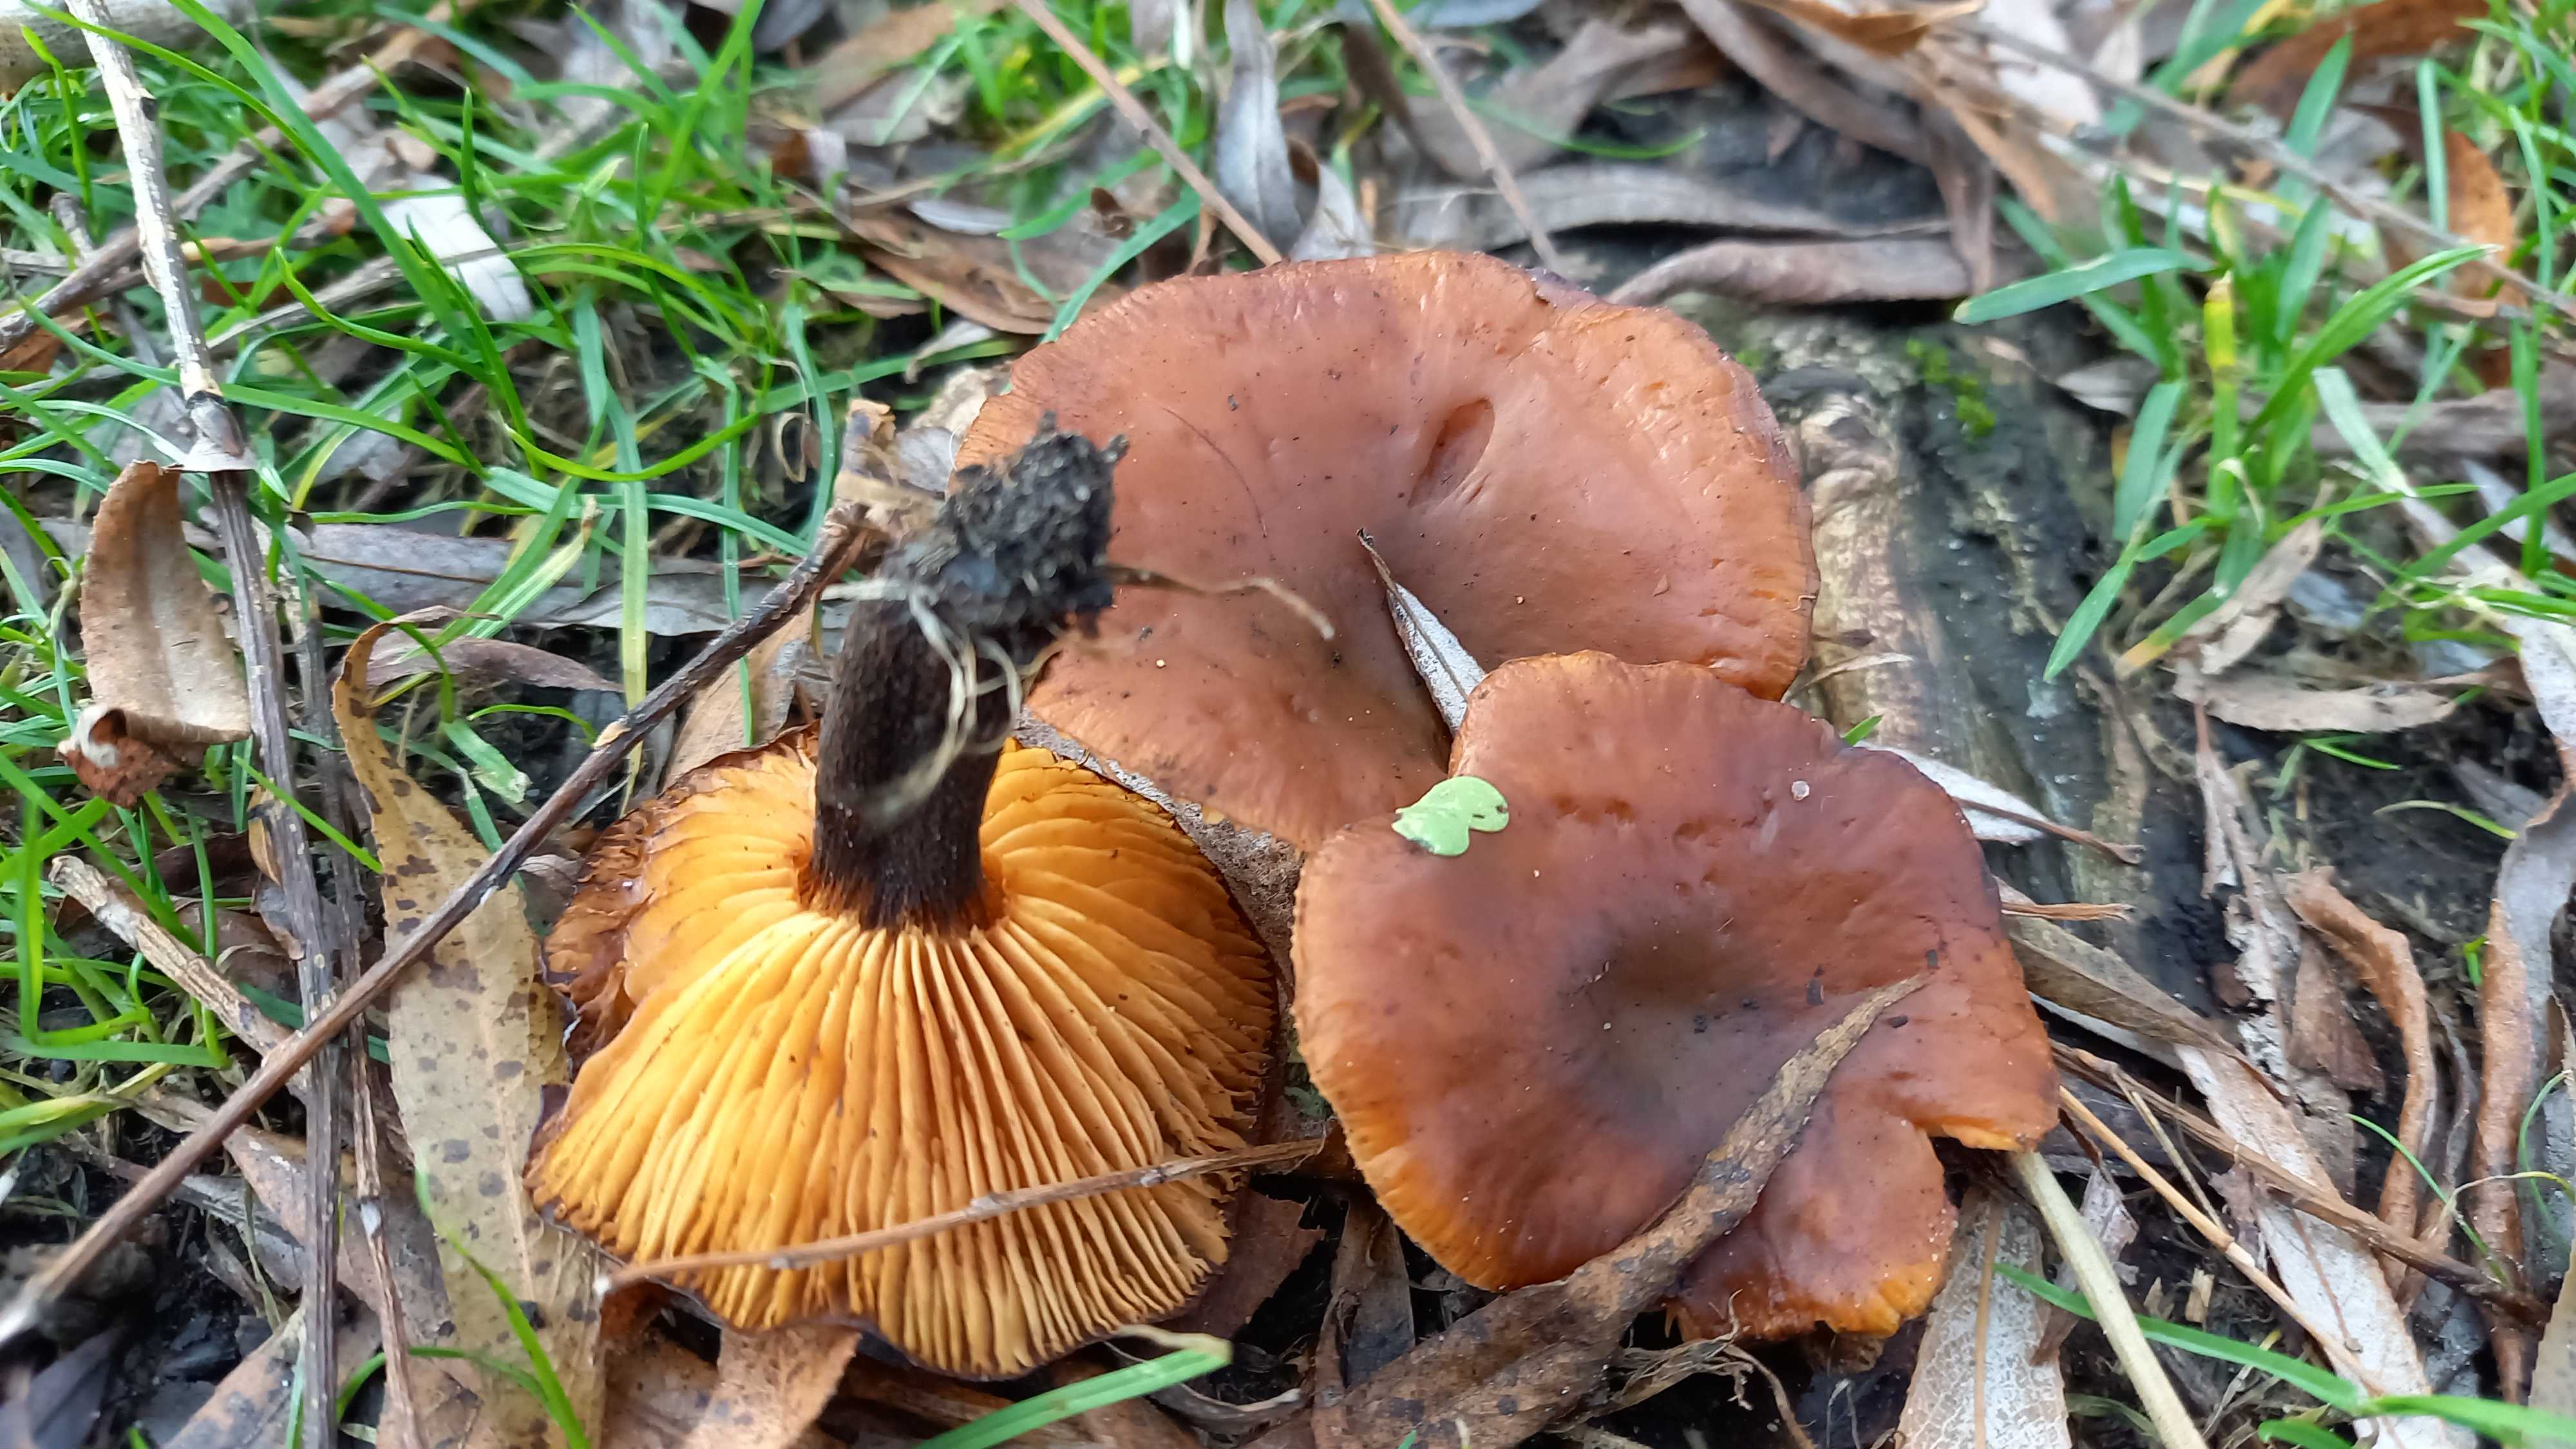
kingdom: Fungi
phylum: Basidiomycota
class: Agaricomycetes
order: Agaricales
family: Physalacriaceae
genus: Flammulina
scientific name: Flammulina
